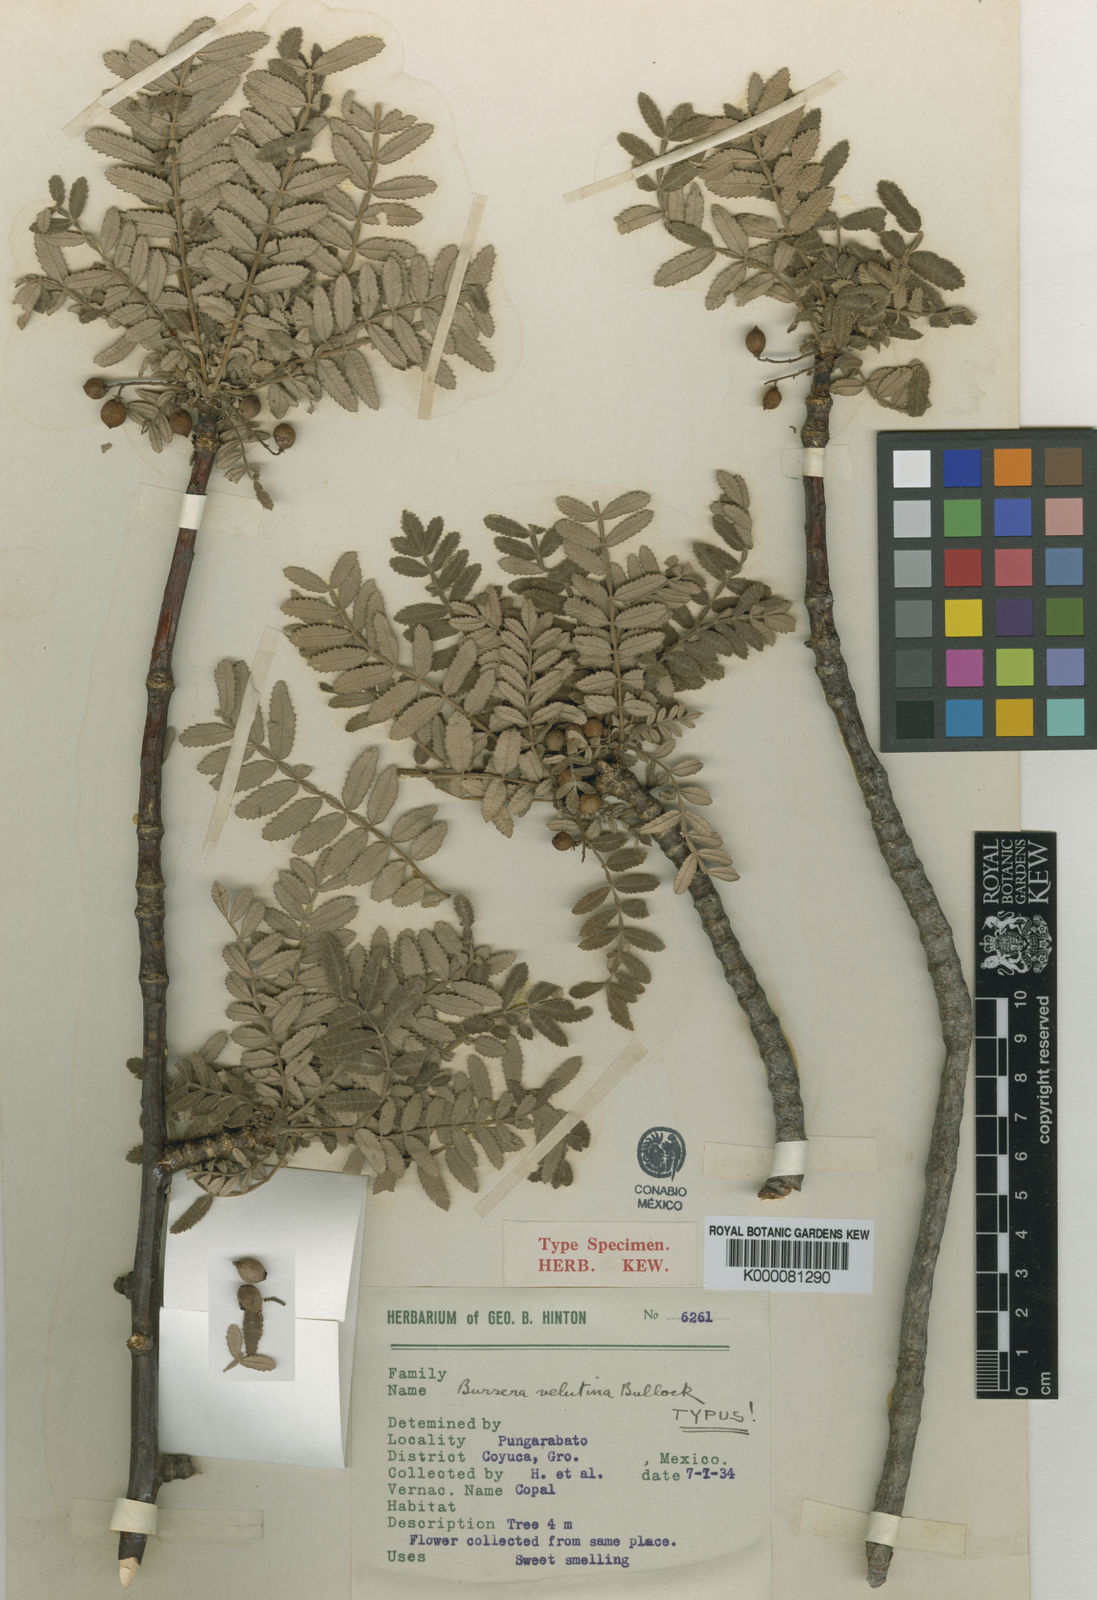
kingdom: Plantae
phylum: Tracheophyta
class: Magnoliopsida
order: Sapindales
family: Burseraceae
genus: Bursera
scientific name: Bursera velutina
